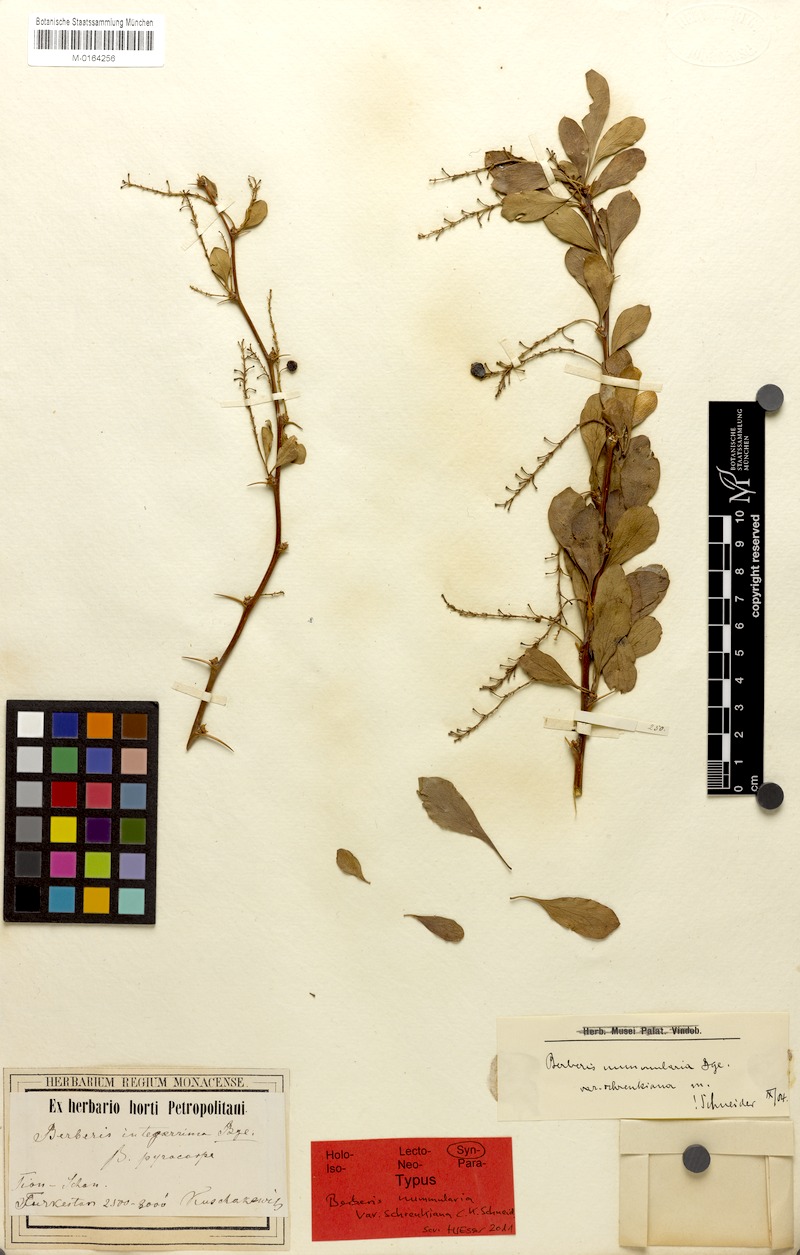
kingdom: Plantae
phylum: Tracheophyta
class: Magnoliopsida
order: Ranunculales
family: Berberidaceae
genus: Berberis
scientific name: Berberis integerrima
